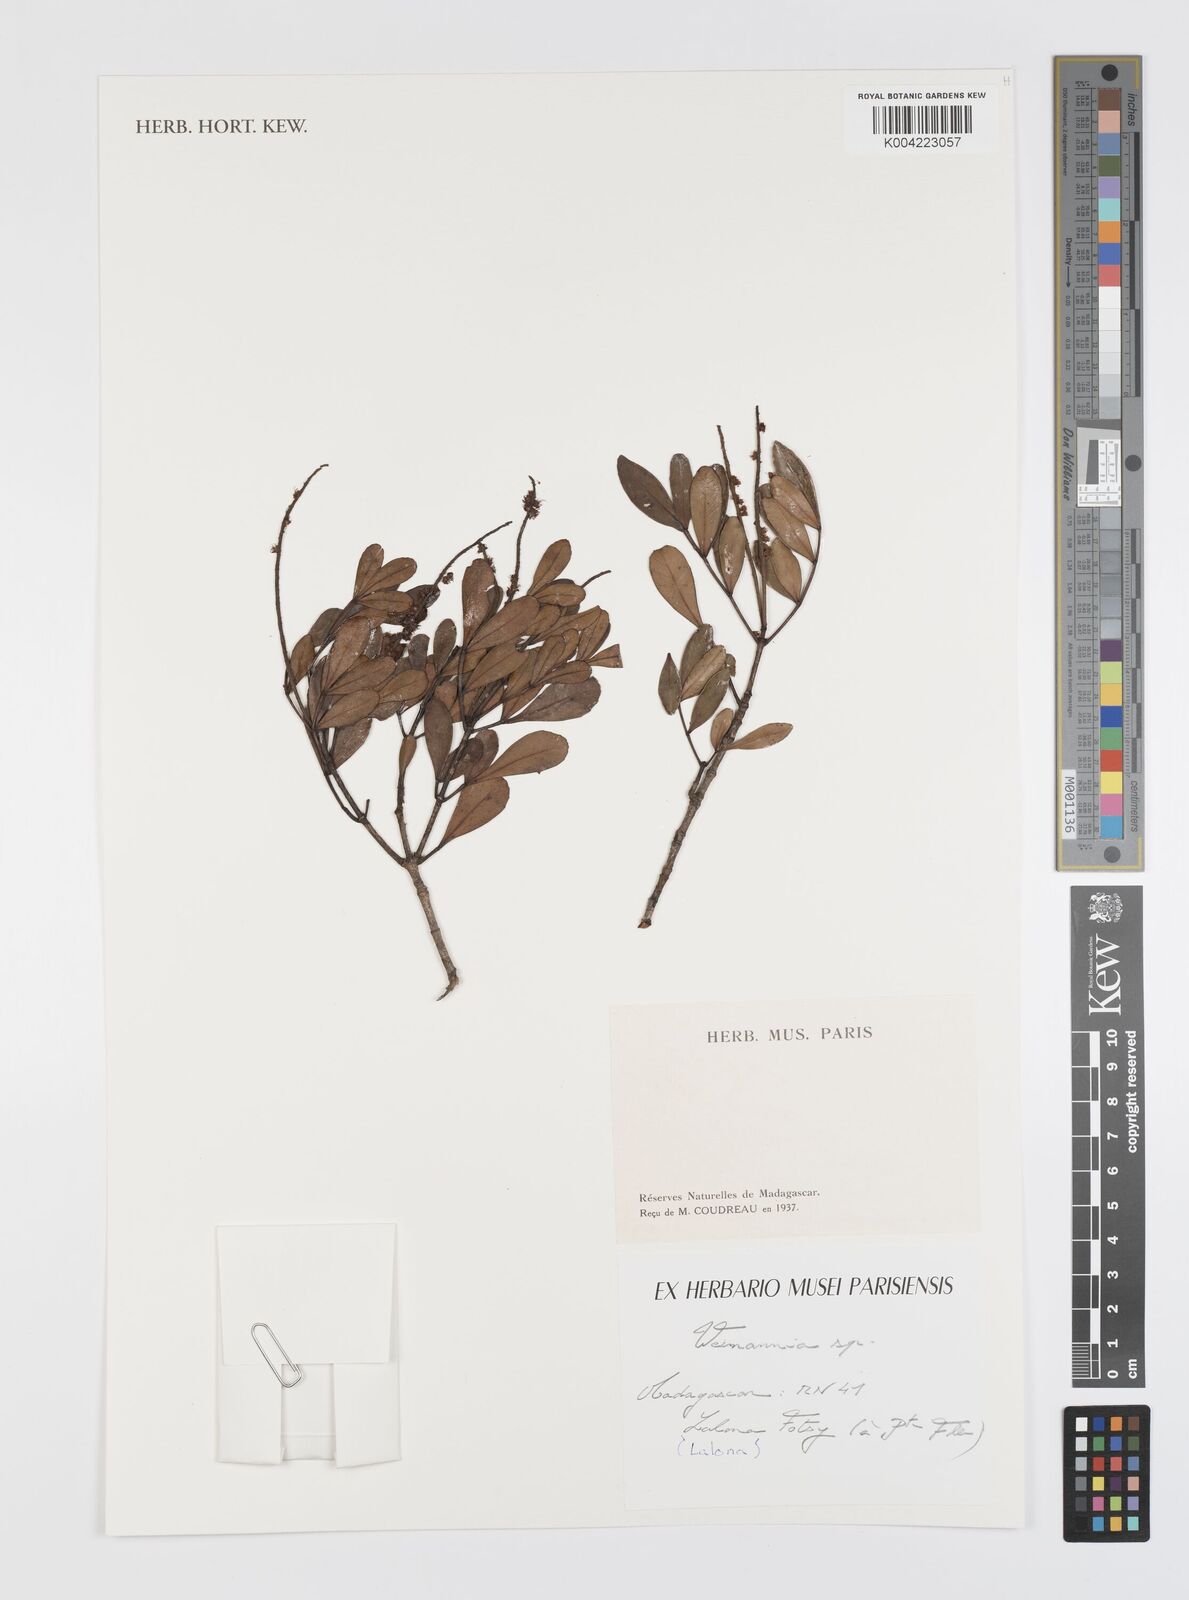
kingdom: Plantae
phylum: Tracheophyta
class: Magnoliopsida
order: Oxalidales
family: Cunoniaceae
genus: Weinmannia
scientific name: Weinmannia
